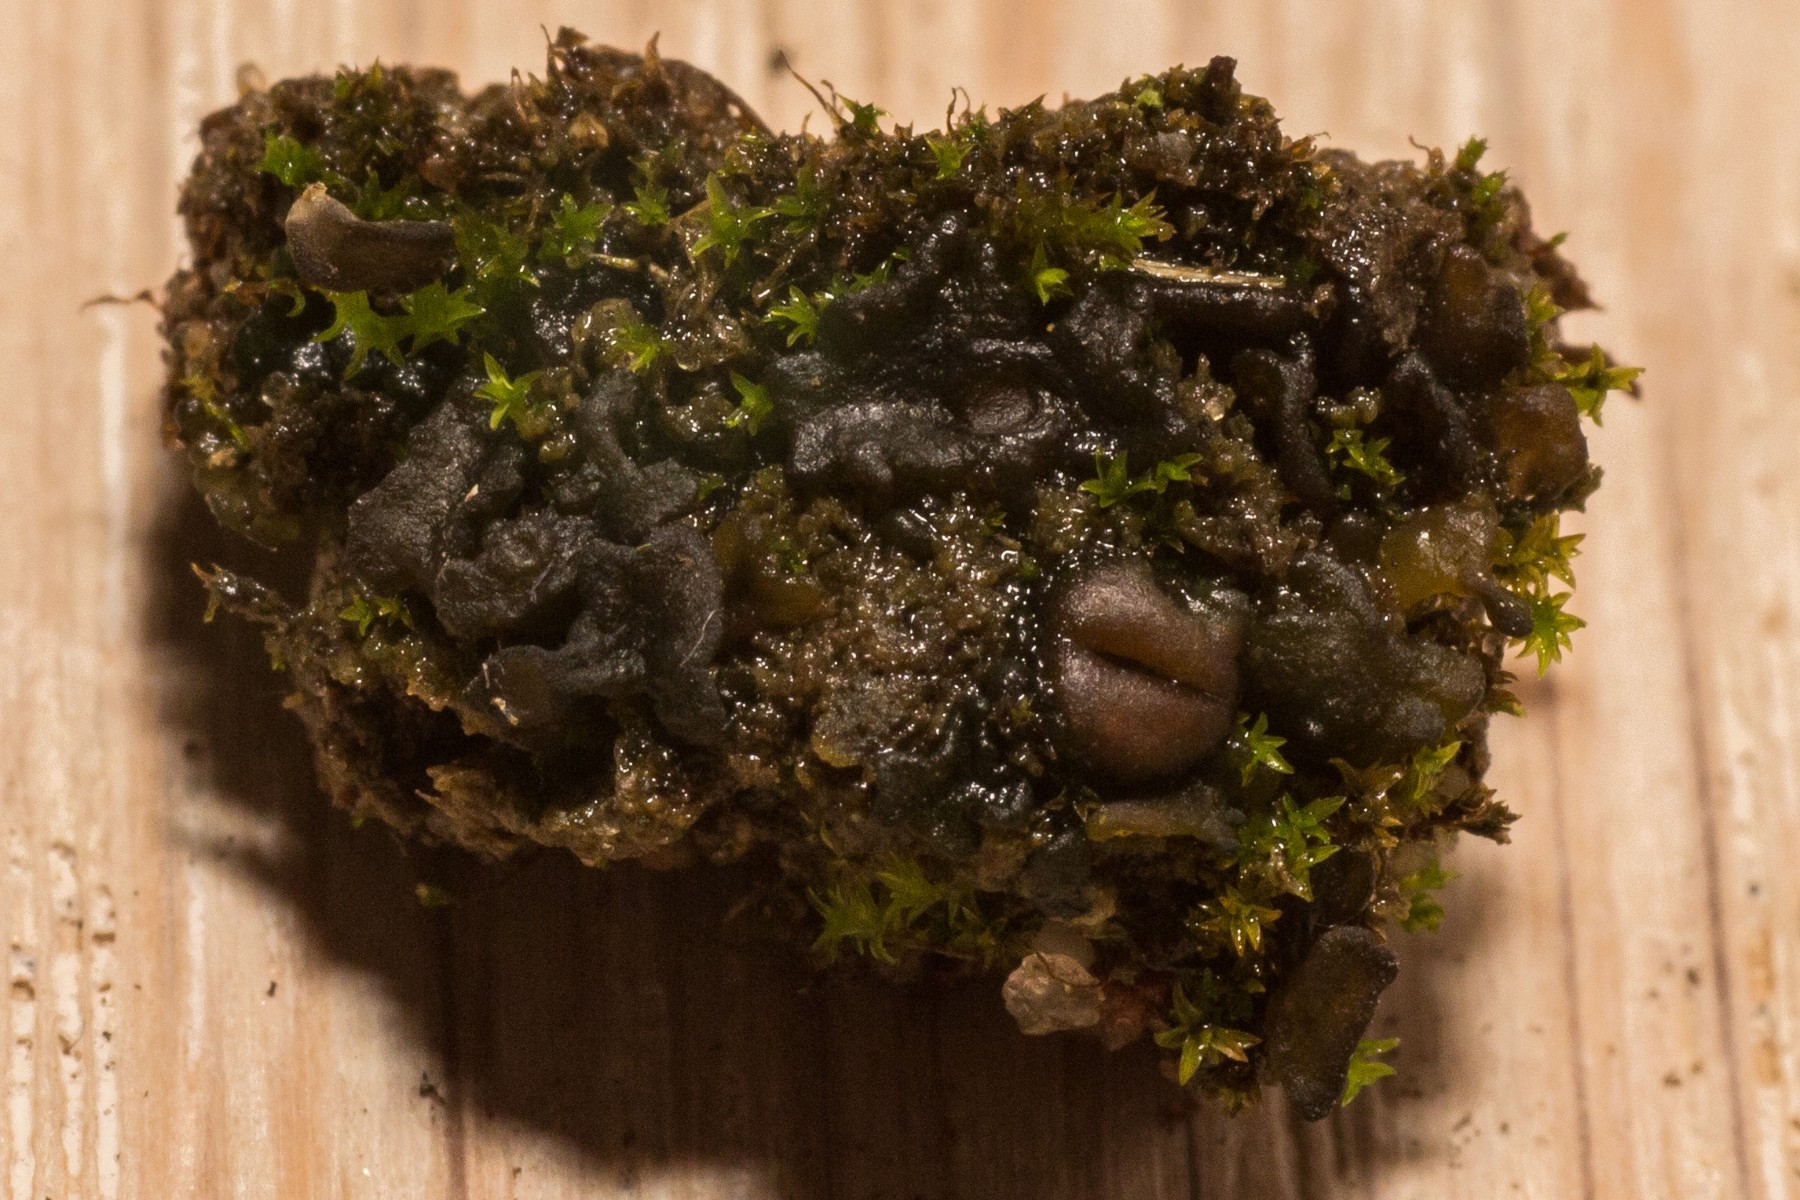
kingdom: Fungi
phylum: Ascomycota
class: Lecanoromycetes
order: Peltigerales
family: Collemataceae
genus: Enchylium
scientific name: Enchylium tenax
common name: tyk bævrelav
